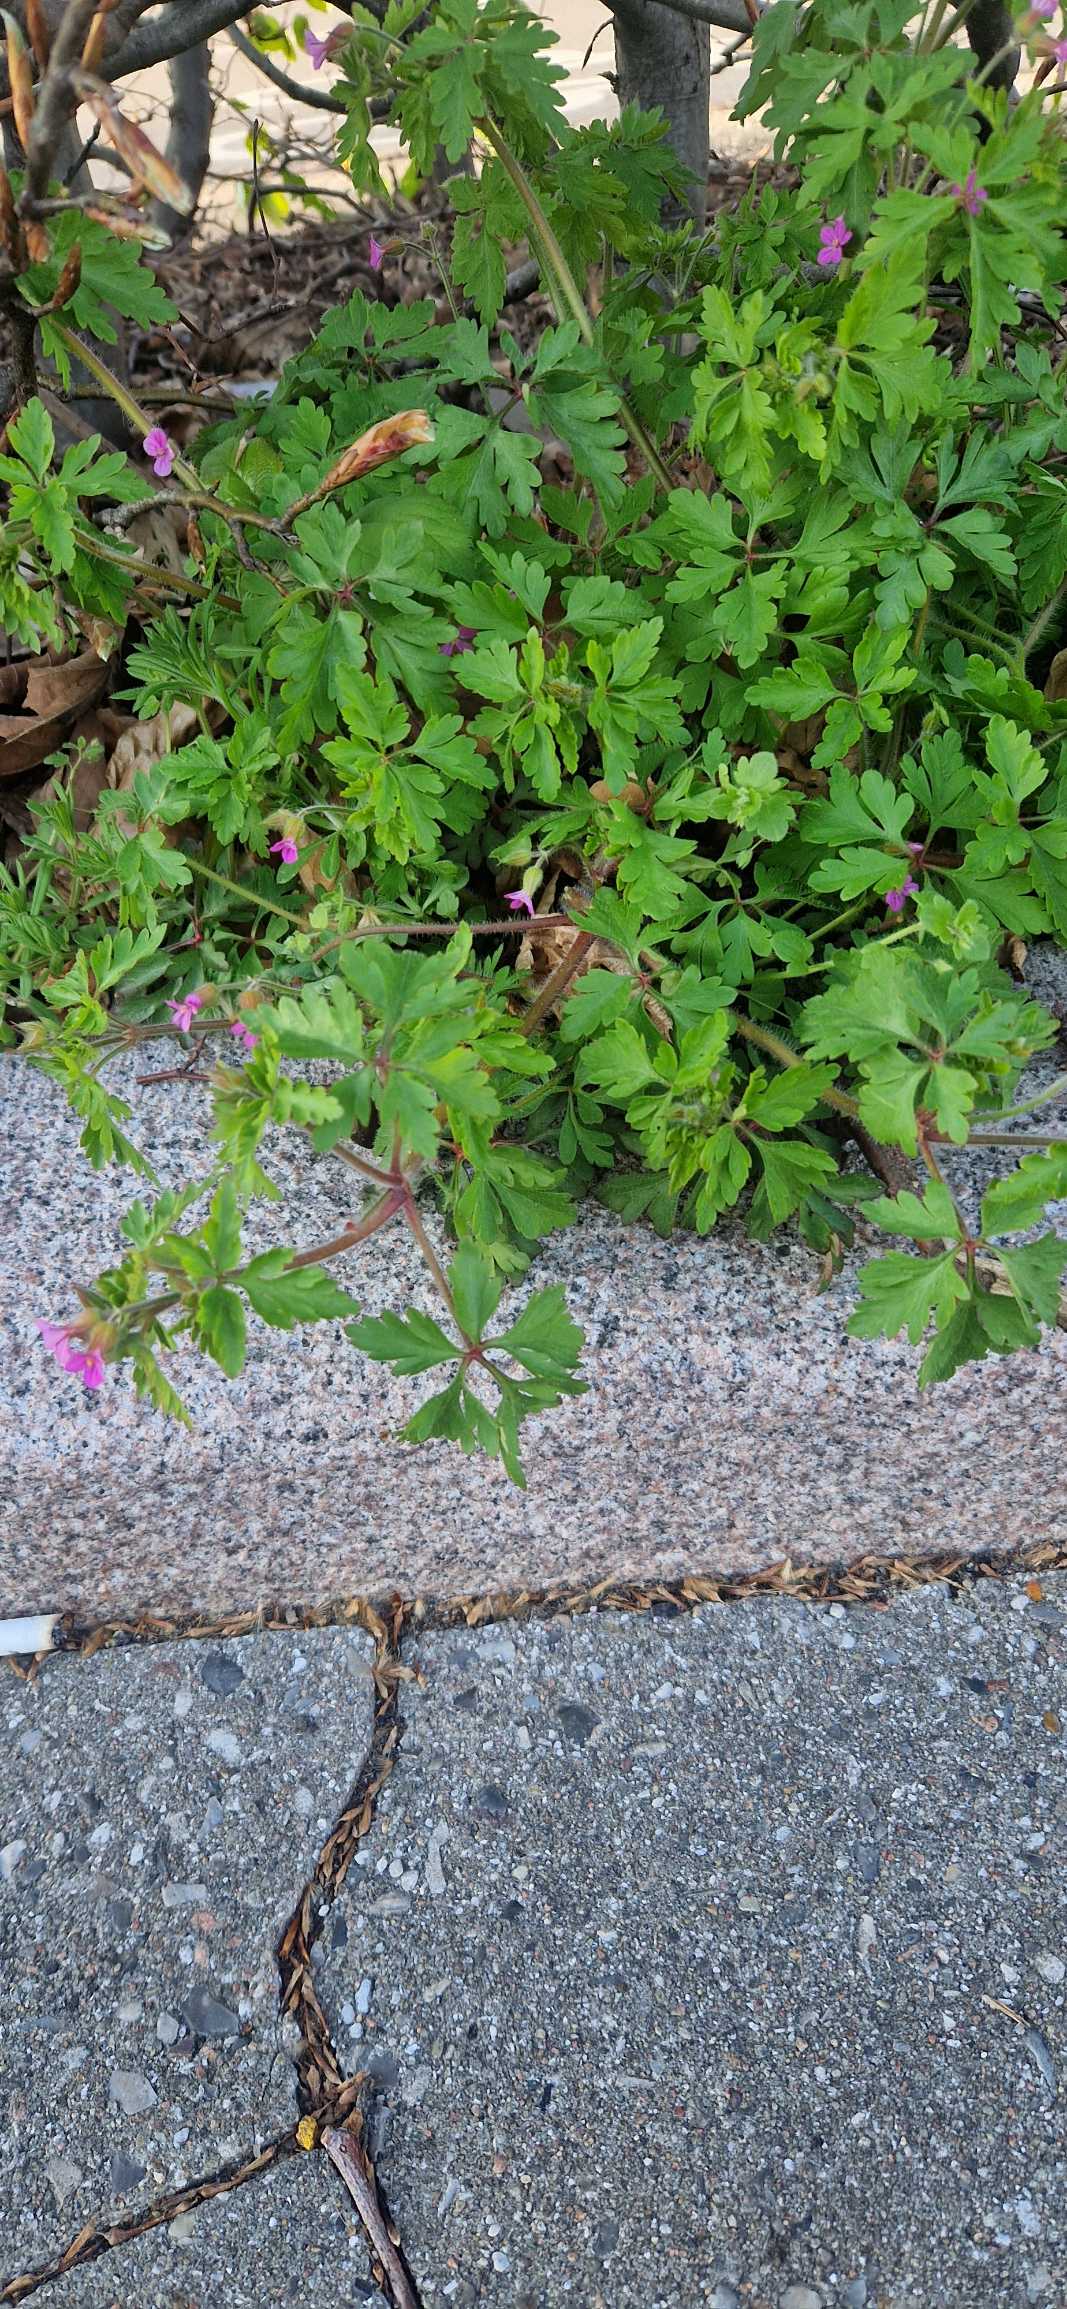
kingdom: Plantae
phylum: Tracheophyta
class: Magnoliopsida
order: Geraniales
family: Geraniaceae
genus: Geranium
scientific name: Geranium purpureum
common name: Purpur-storkenæb
